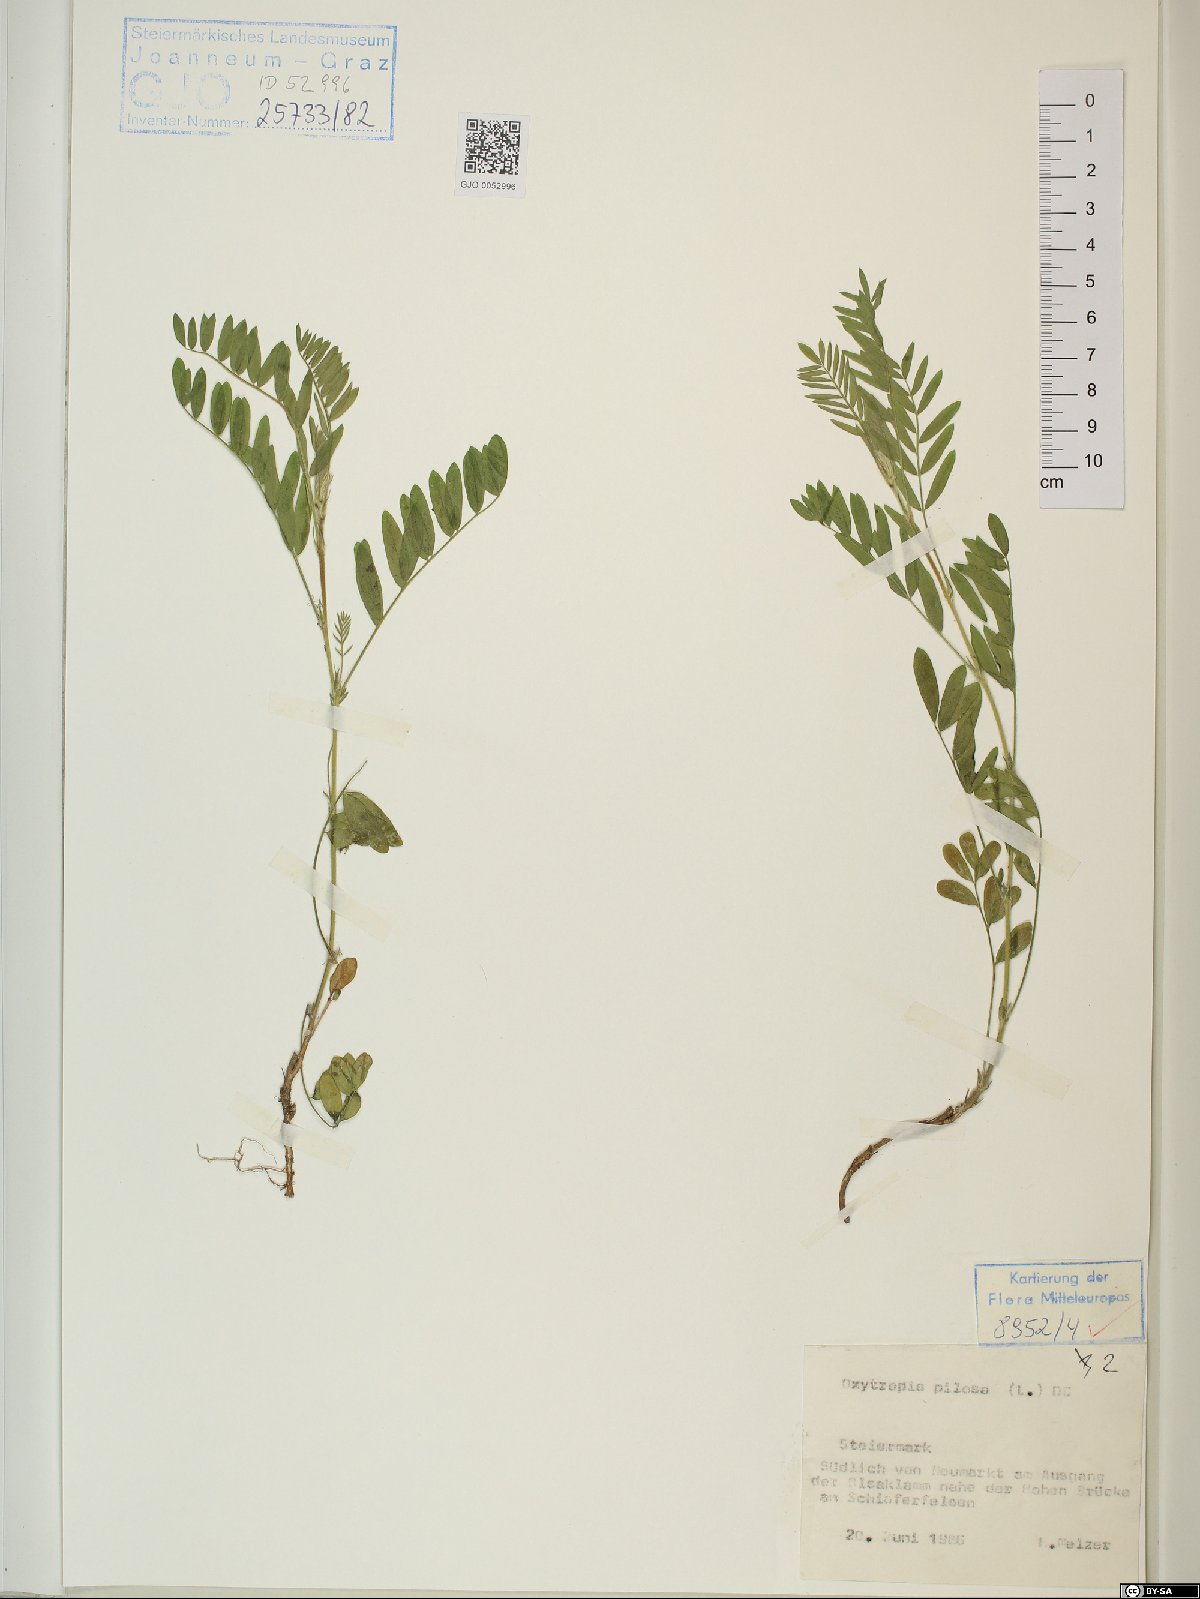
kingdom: Plantae
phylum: Tracheophyta
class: Magnoliopsida
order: Fabales
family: Fabaceae
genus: Oxytropis
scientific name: Oxytropis pilosa
